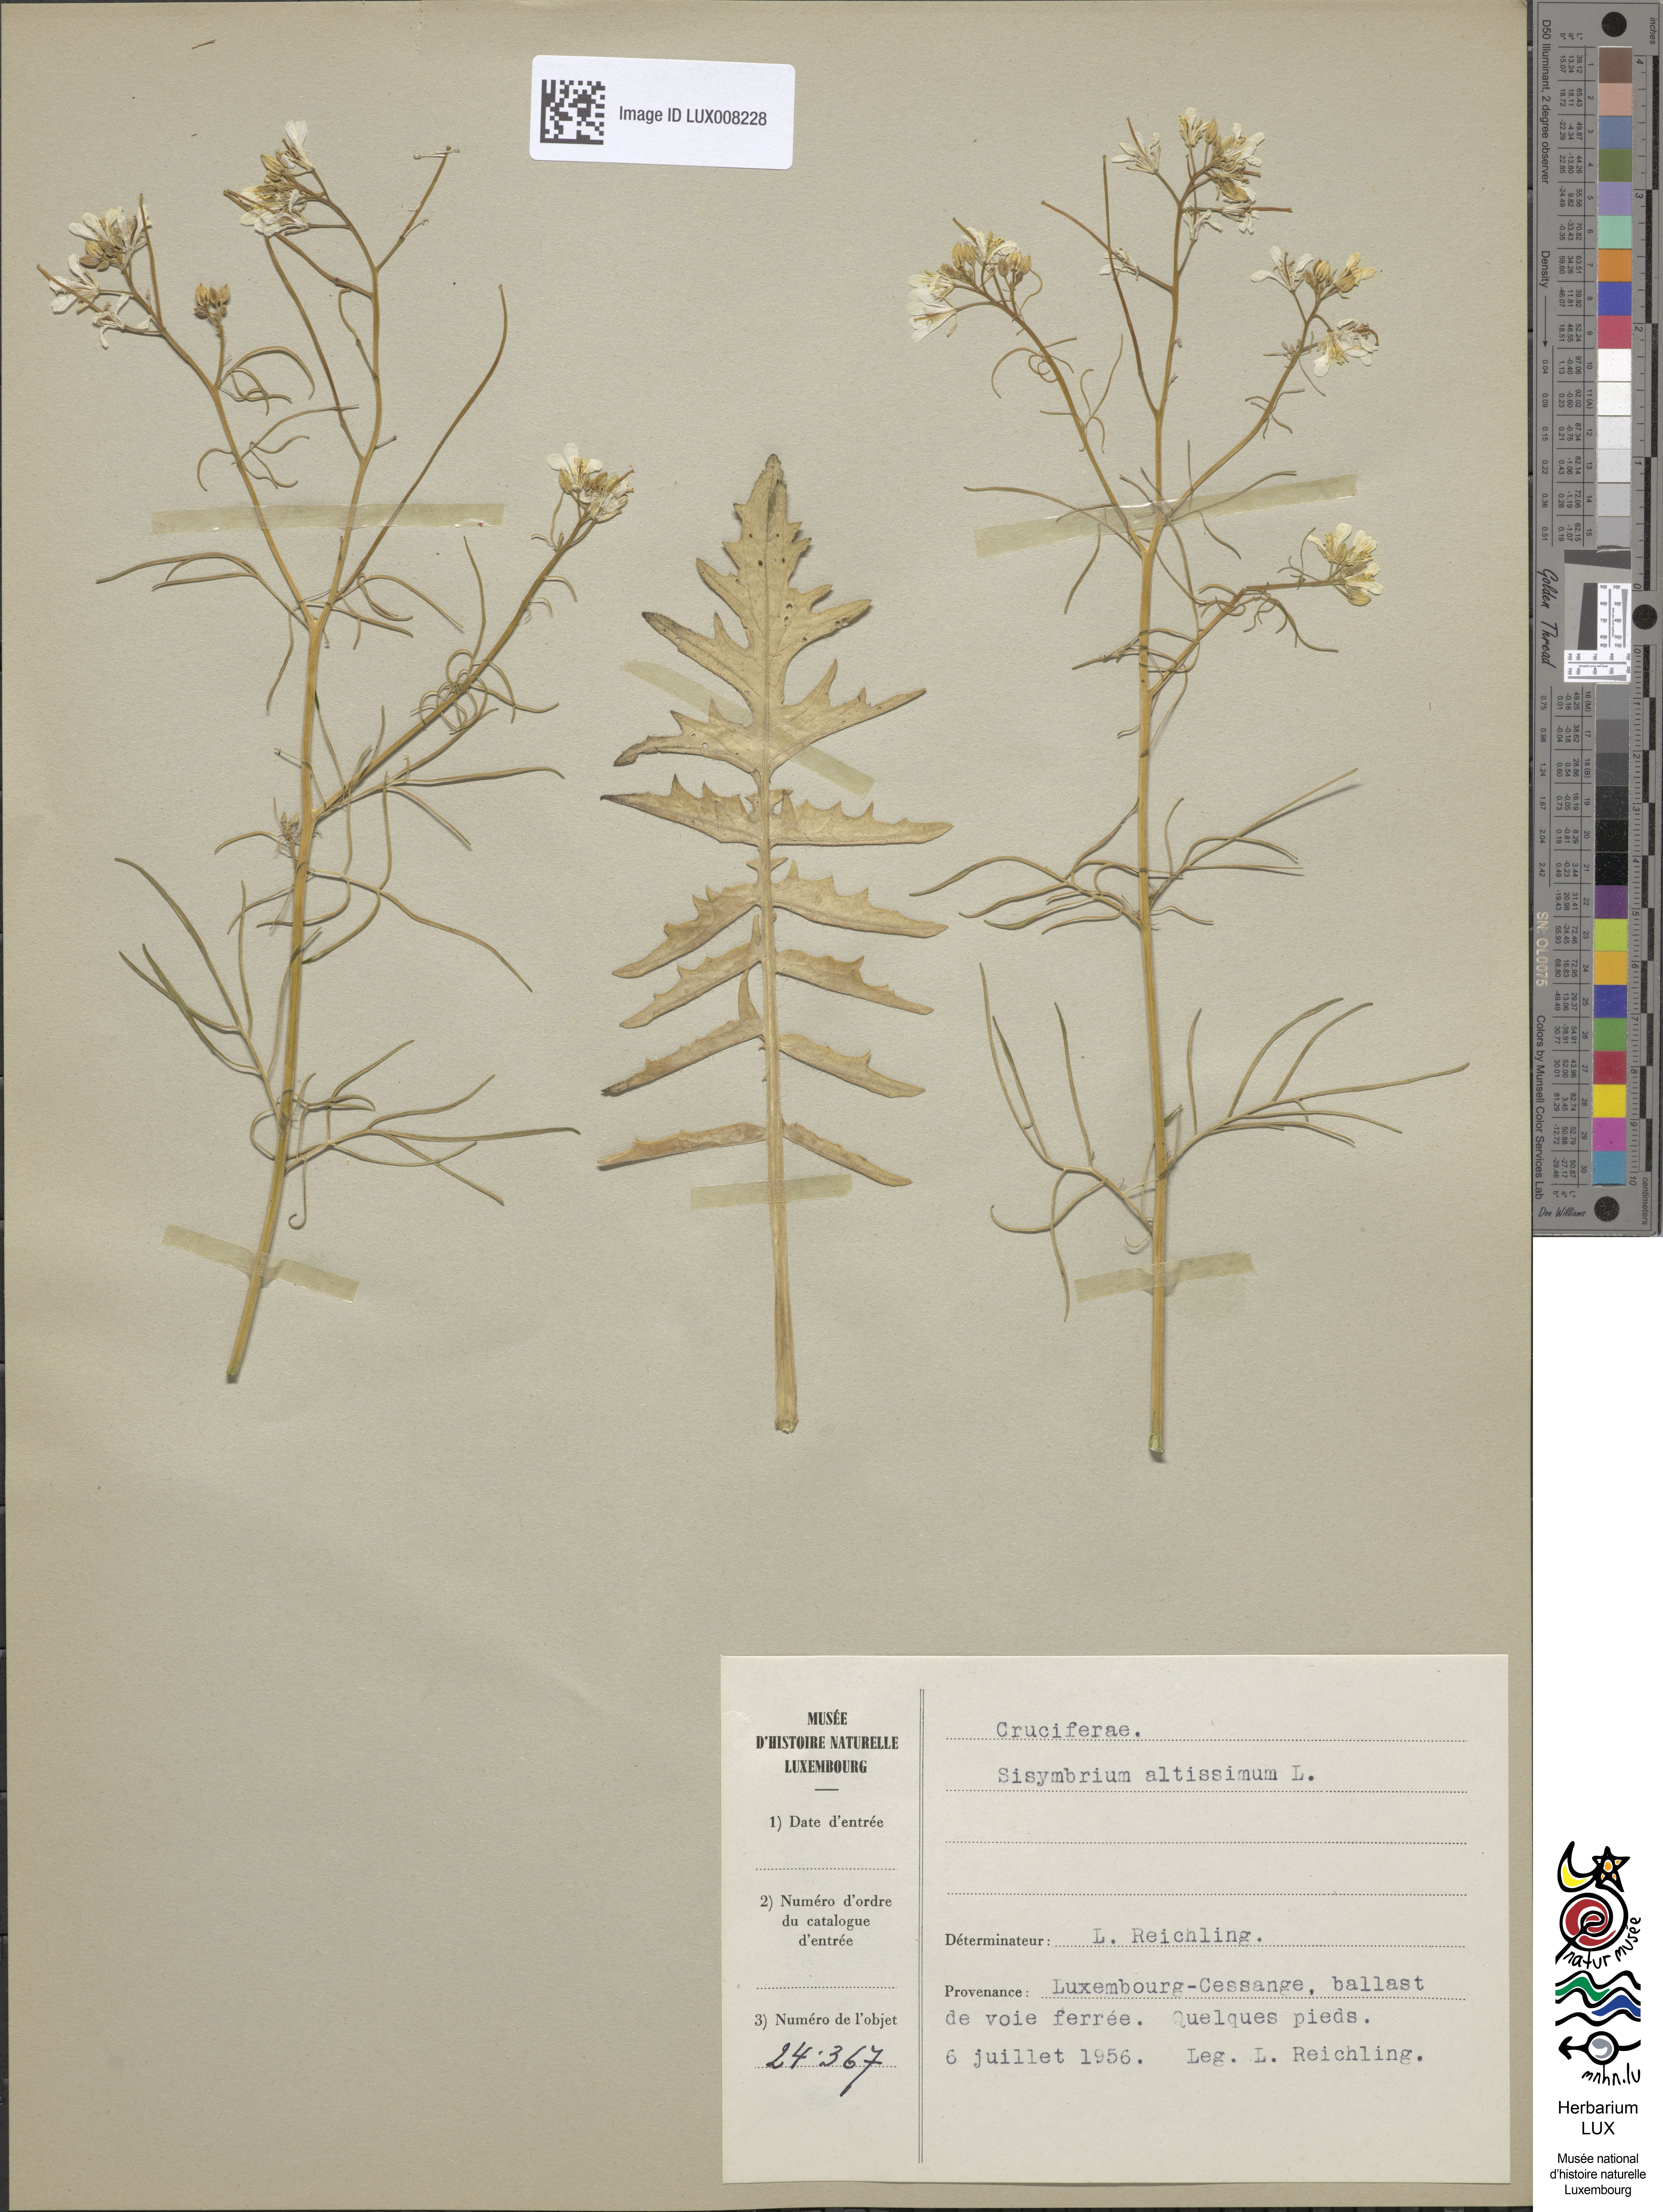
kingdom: Plantae
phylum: Tracheophyta
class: Magnoliopsida
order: Brassicales
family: Brassicaceae
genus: Sisymbrium
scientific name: Sisymbrium altissimum
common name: Tall rocket
